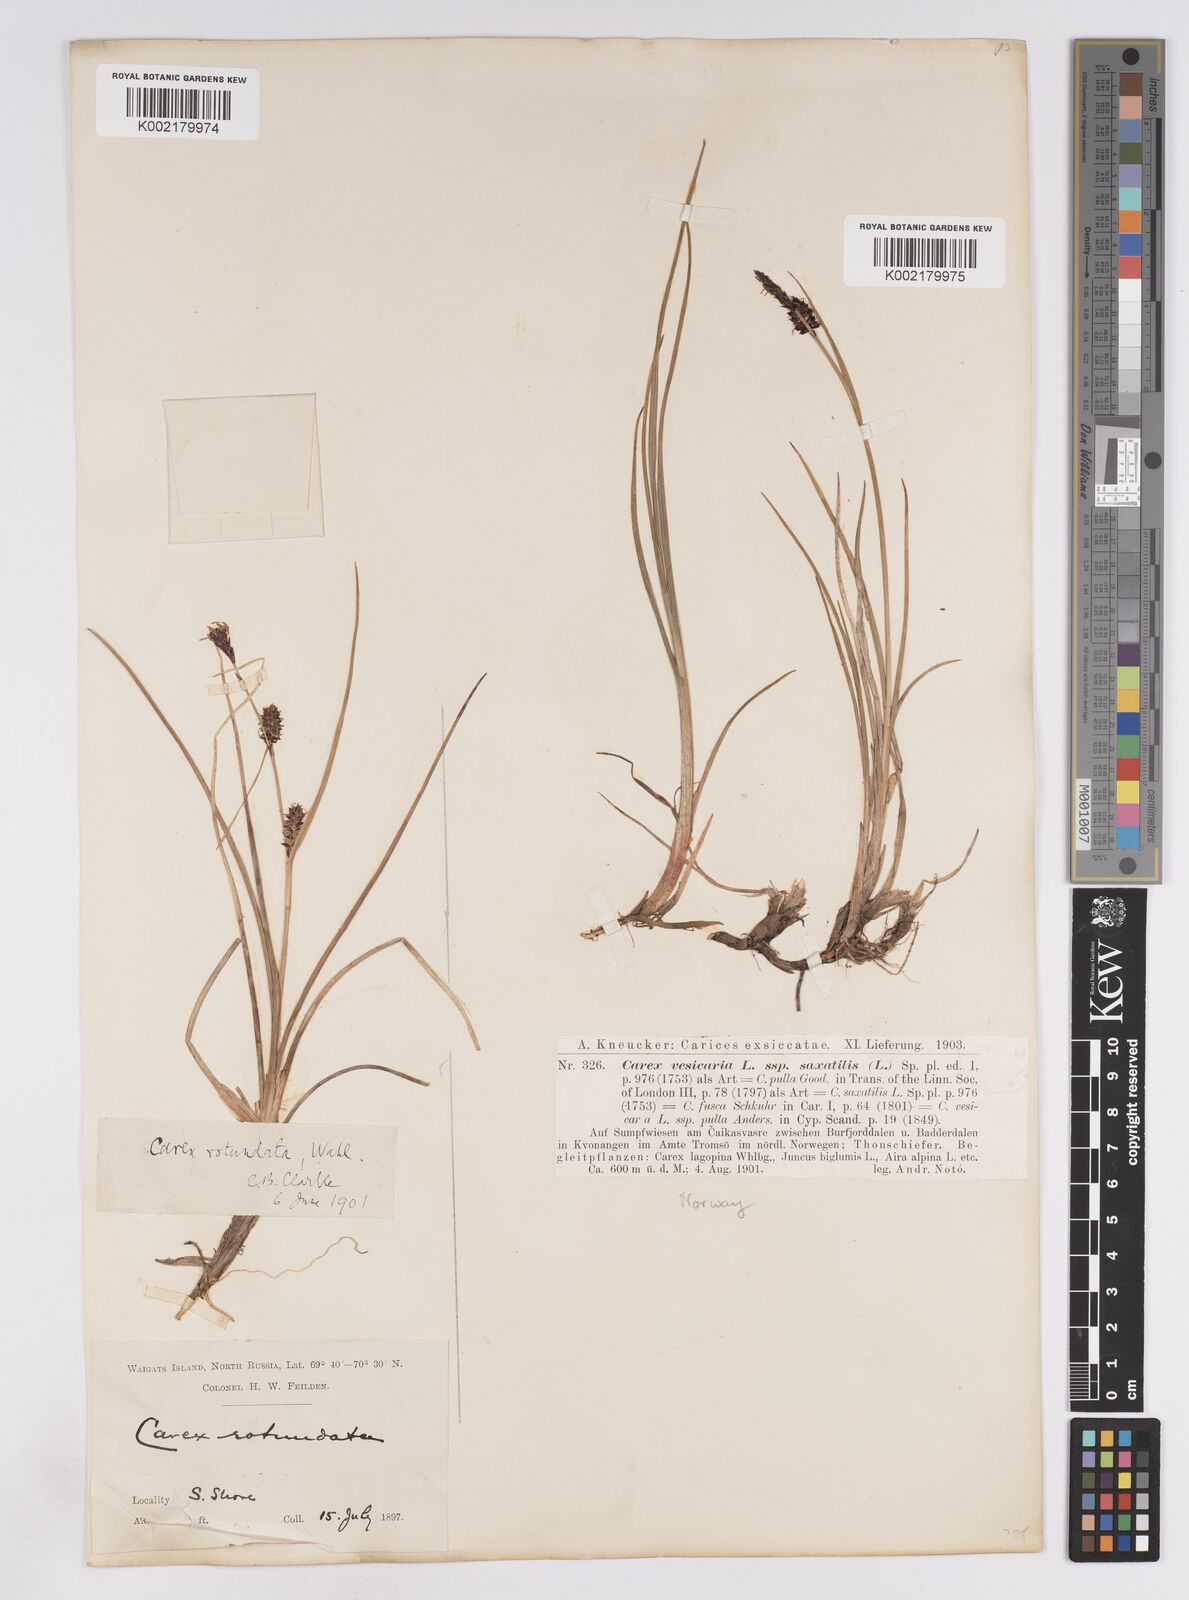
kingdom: Plantae
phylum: Tracheophyta
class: Liliopsida
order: Poales
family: Cyperaceae
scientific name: Cyperaceae
